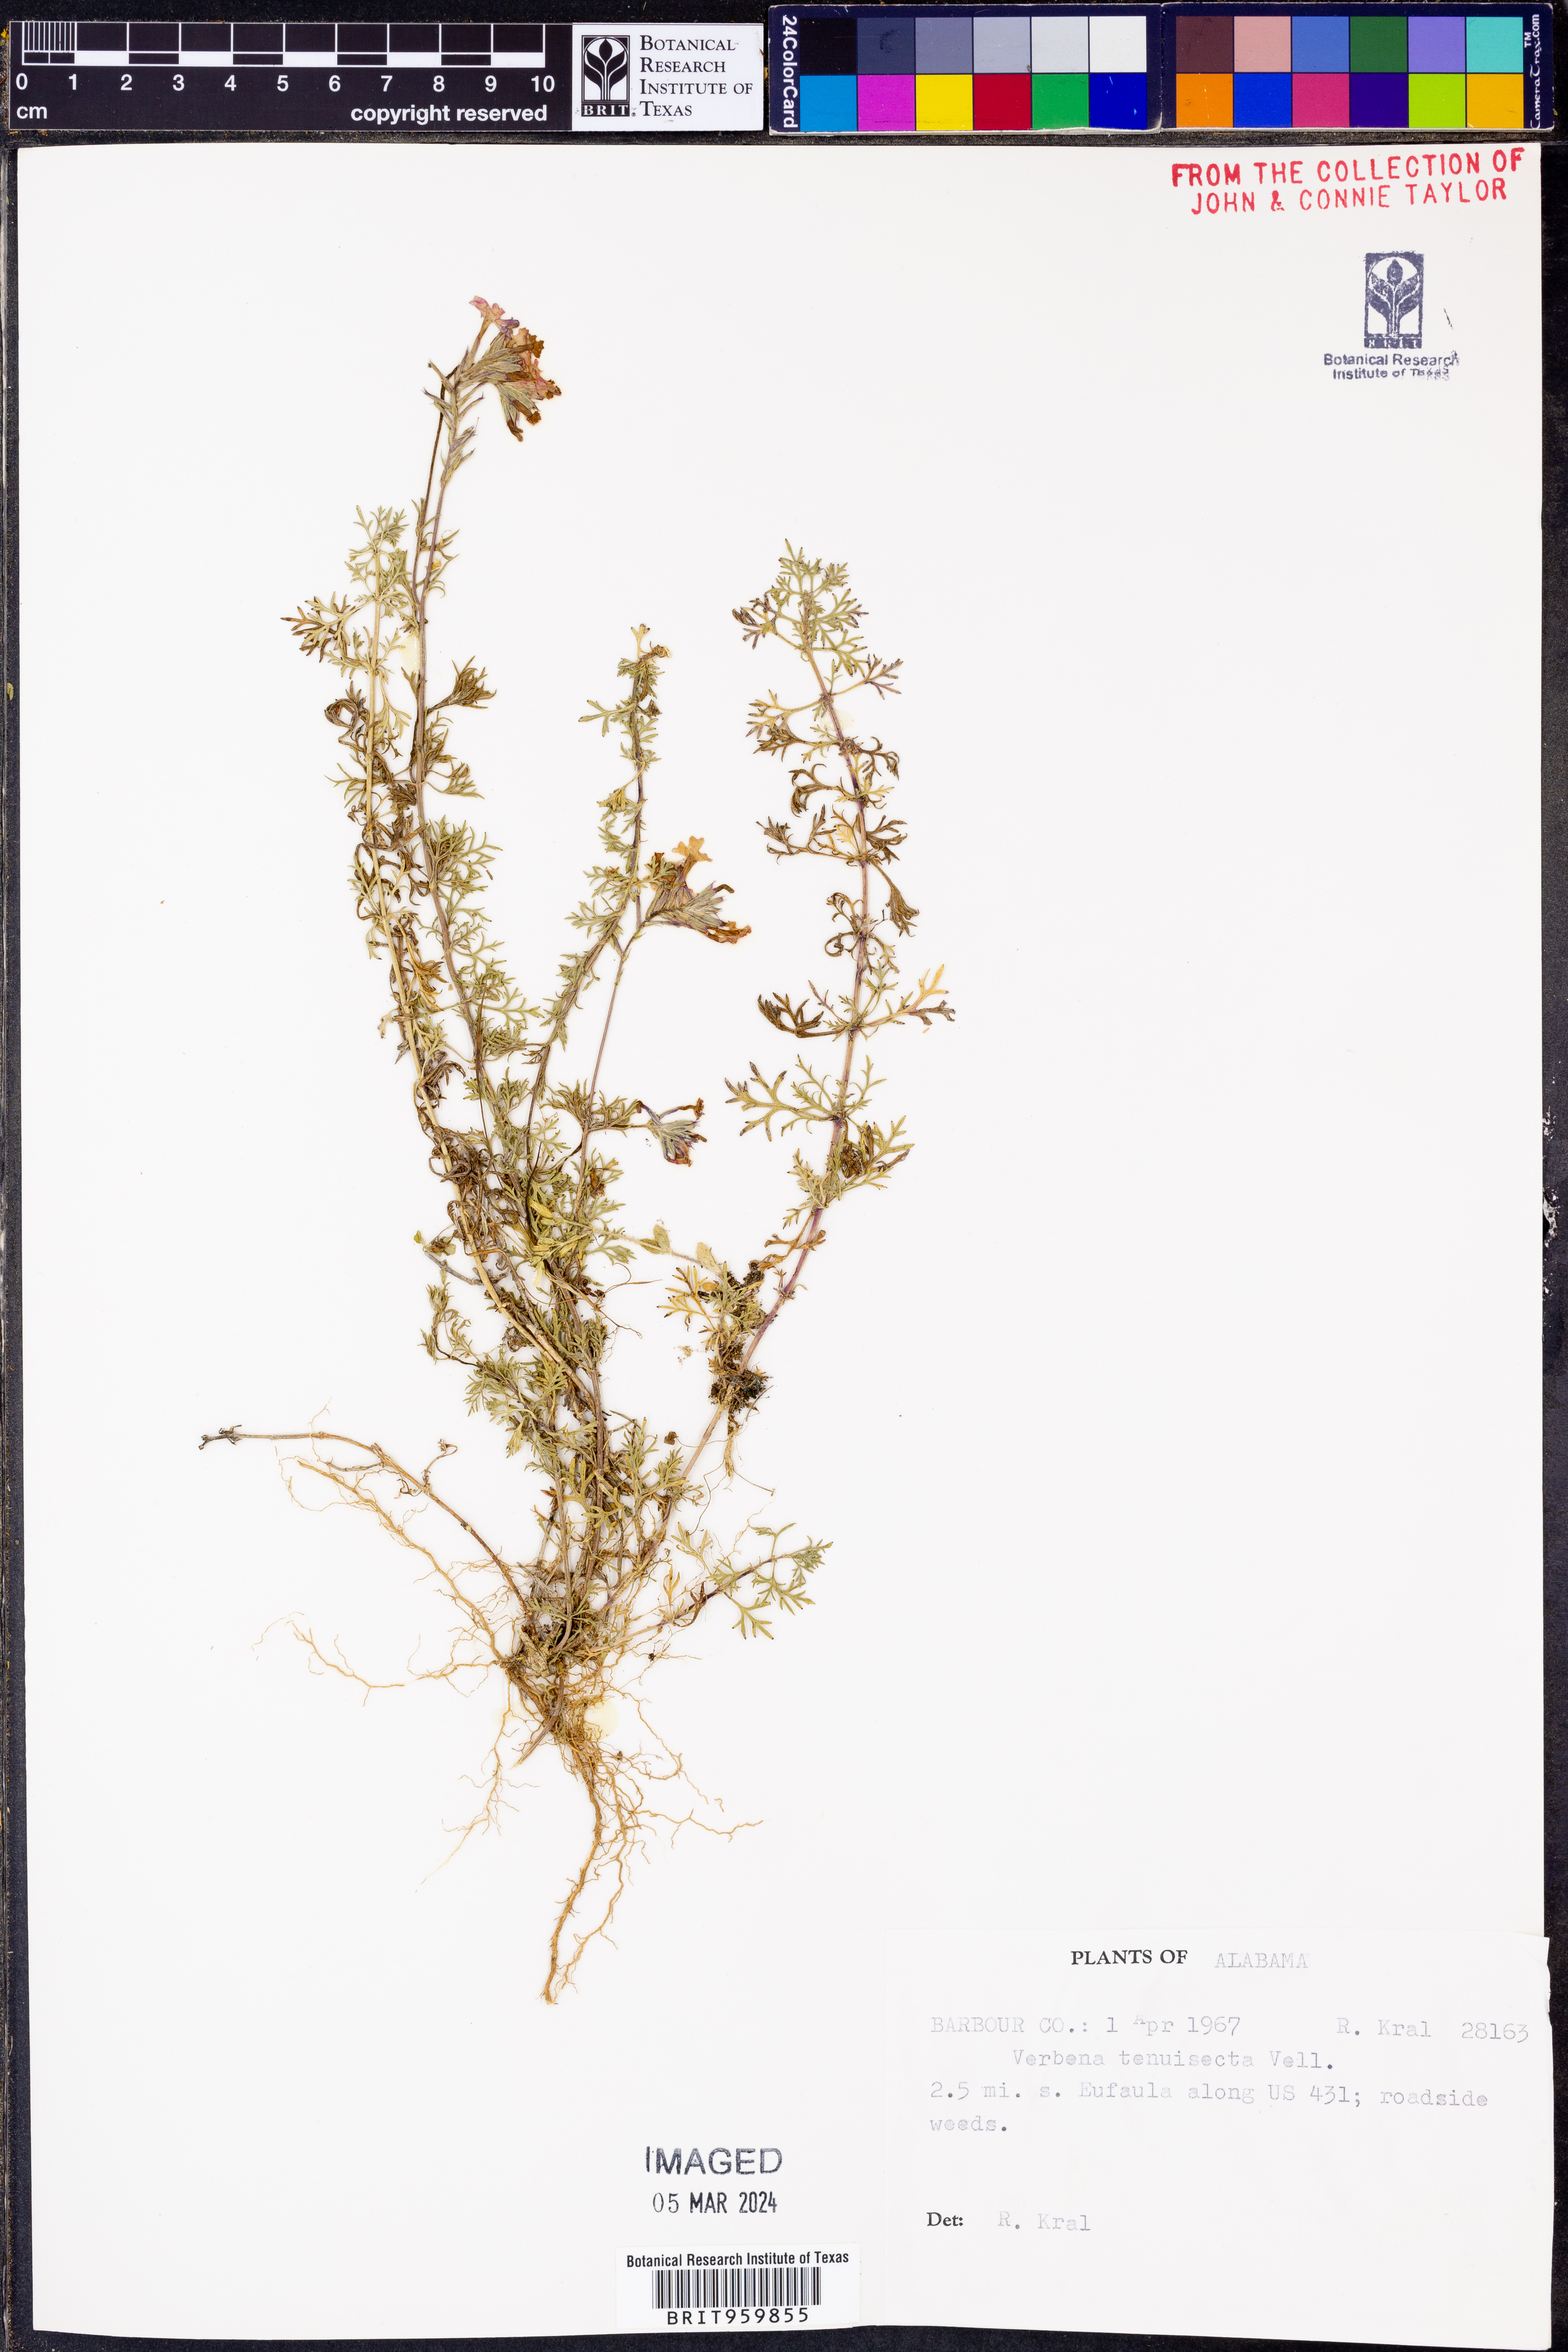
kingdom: Plantae
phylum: Tracheophyta
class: Magnoliopsida
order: Lamiales
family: Verbenaceae
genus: Verbena
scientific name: Verbena tenera
